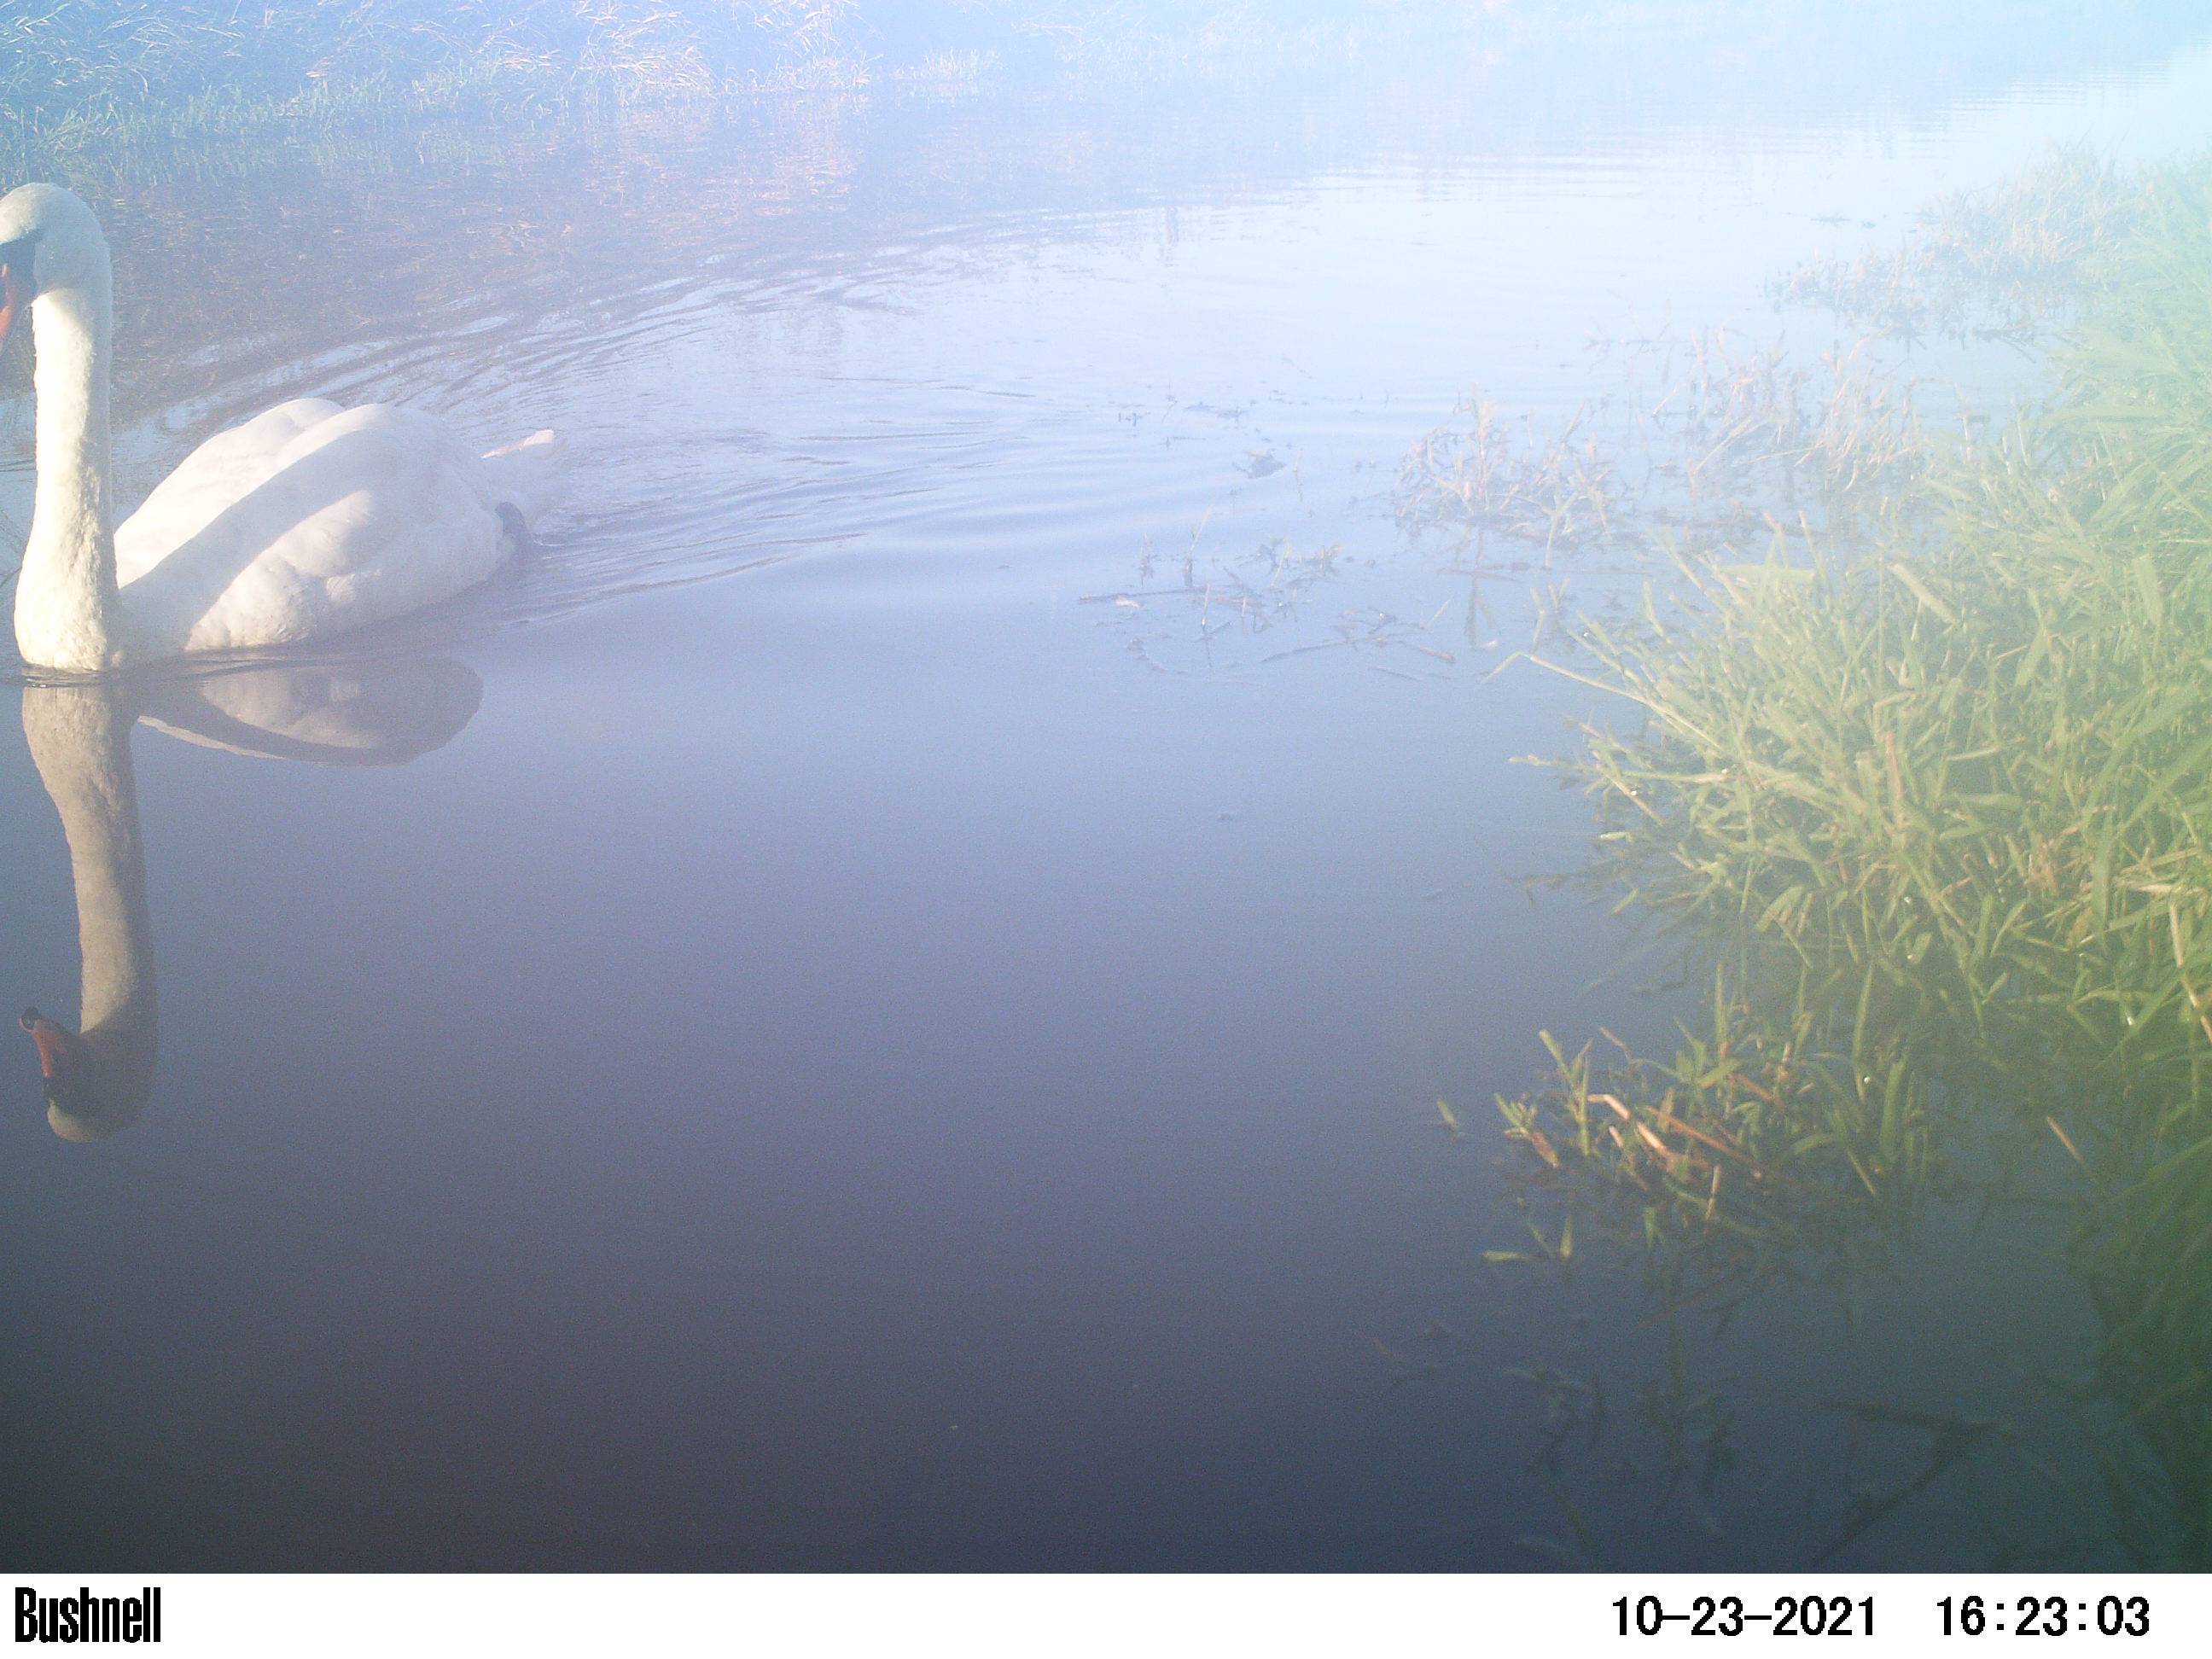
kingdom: Animalia
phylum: Chordata
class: Aves
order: Anseriformes
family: Anatidae
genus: Cygnus
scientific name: Cygnus olor
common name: Mute swan
